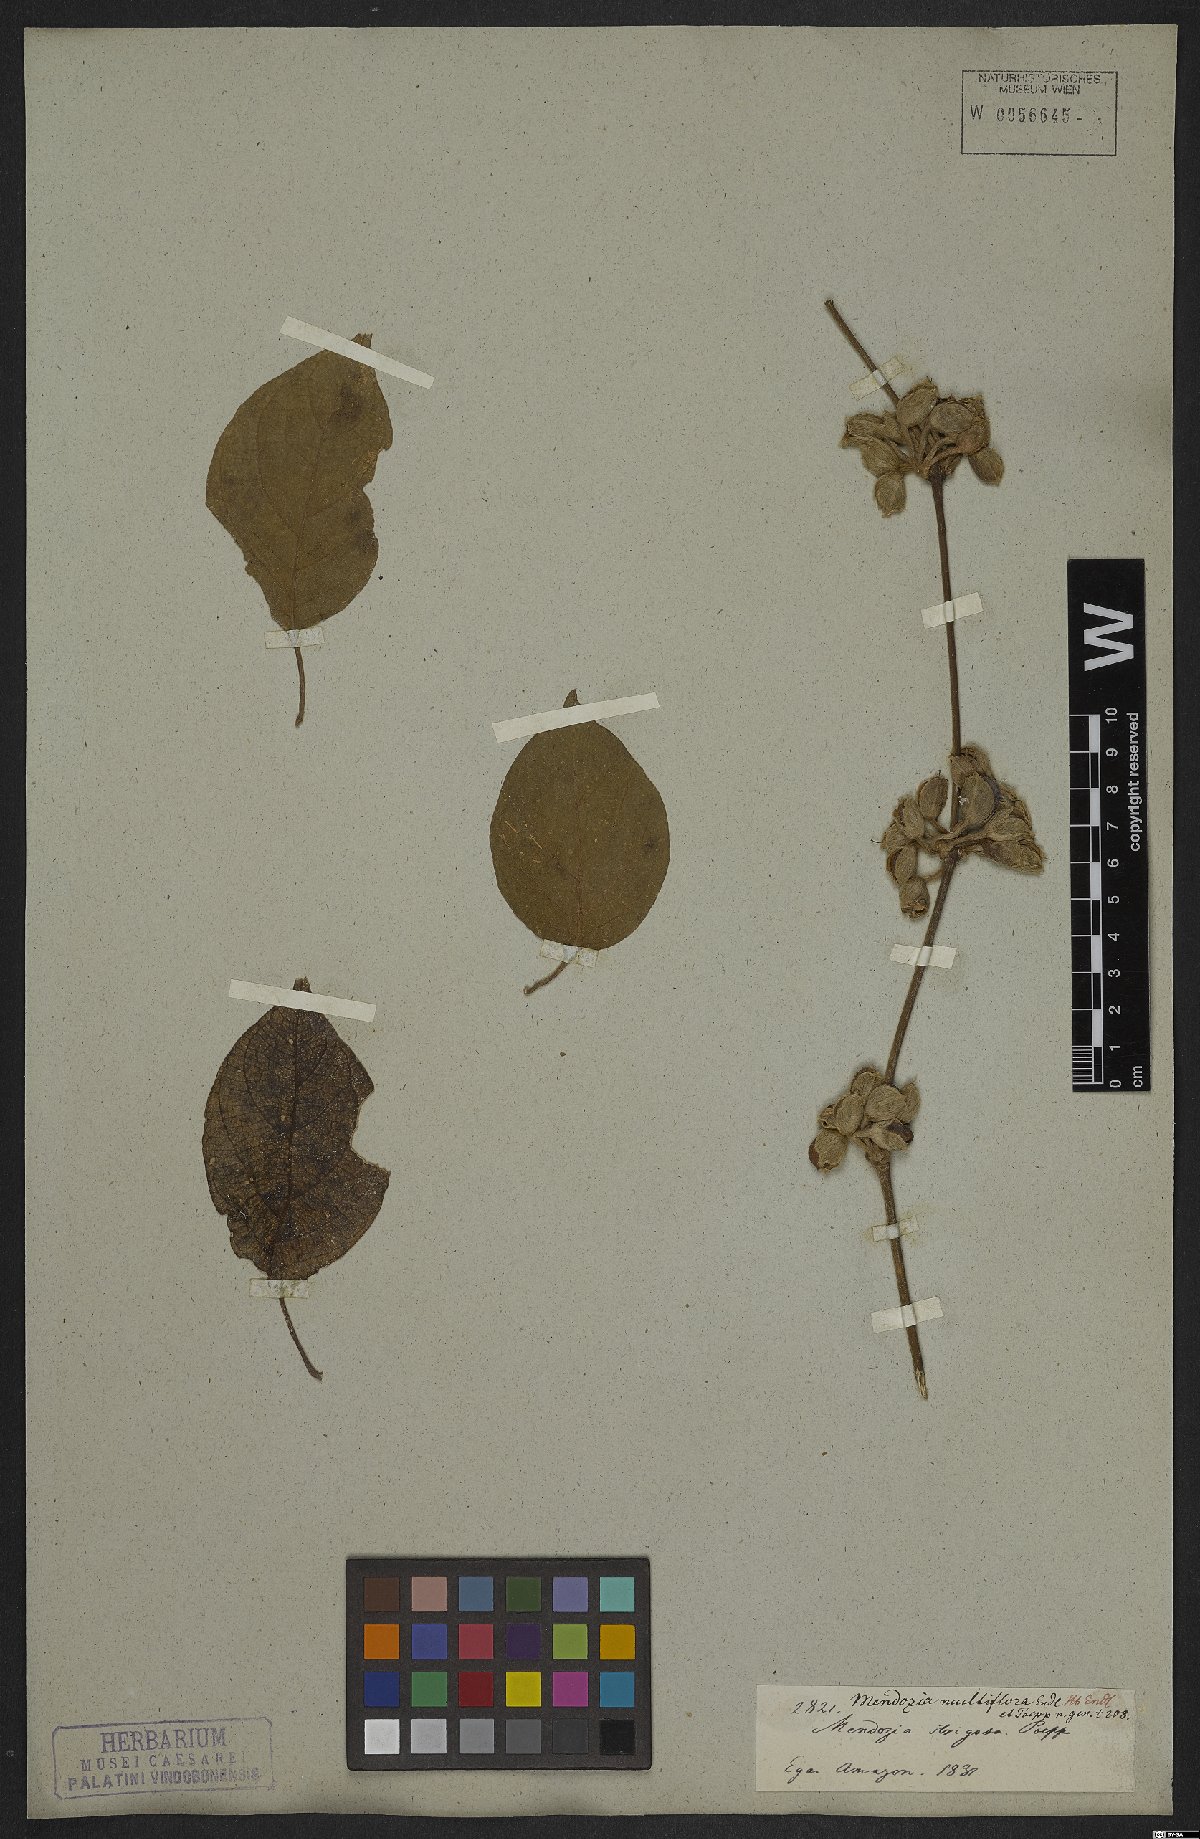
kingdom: Plantae
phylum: Tracheophyta
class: Magnoliopsida
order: Lamiales
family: Acanthaceae
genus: Mendoncia
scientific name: Mendoncia multiflora
